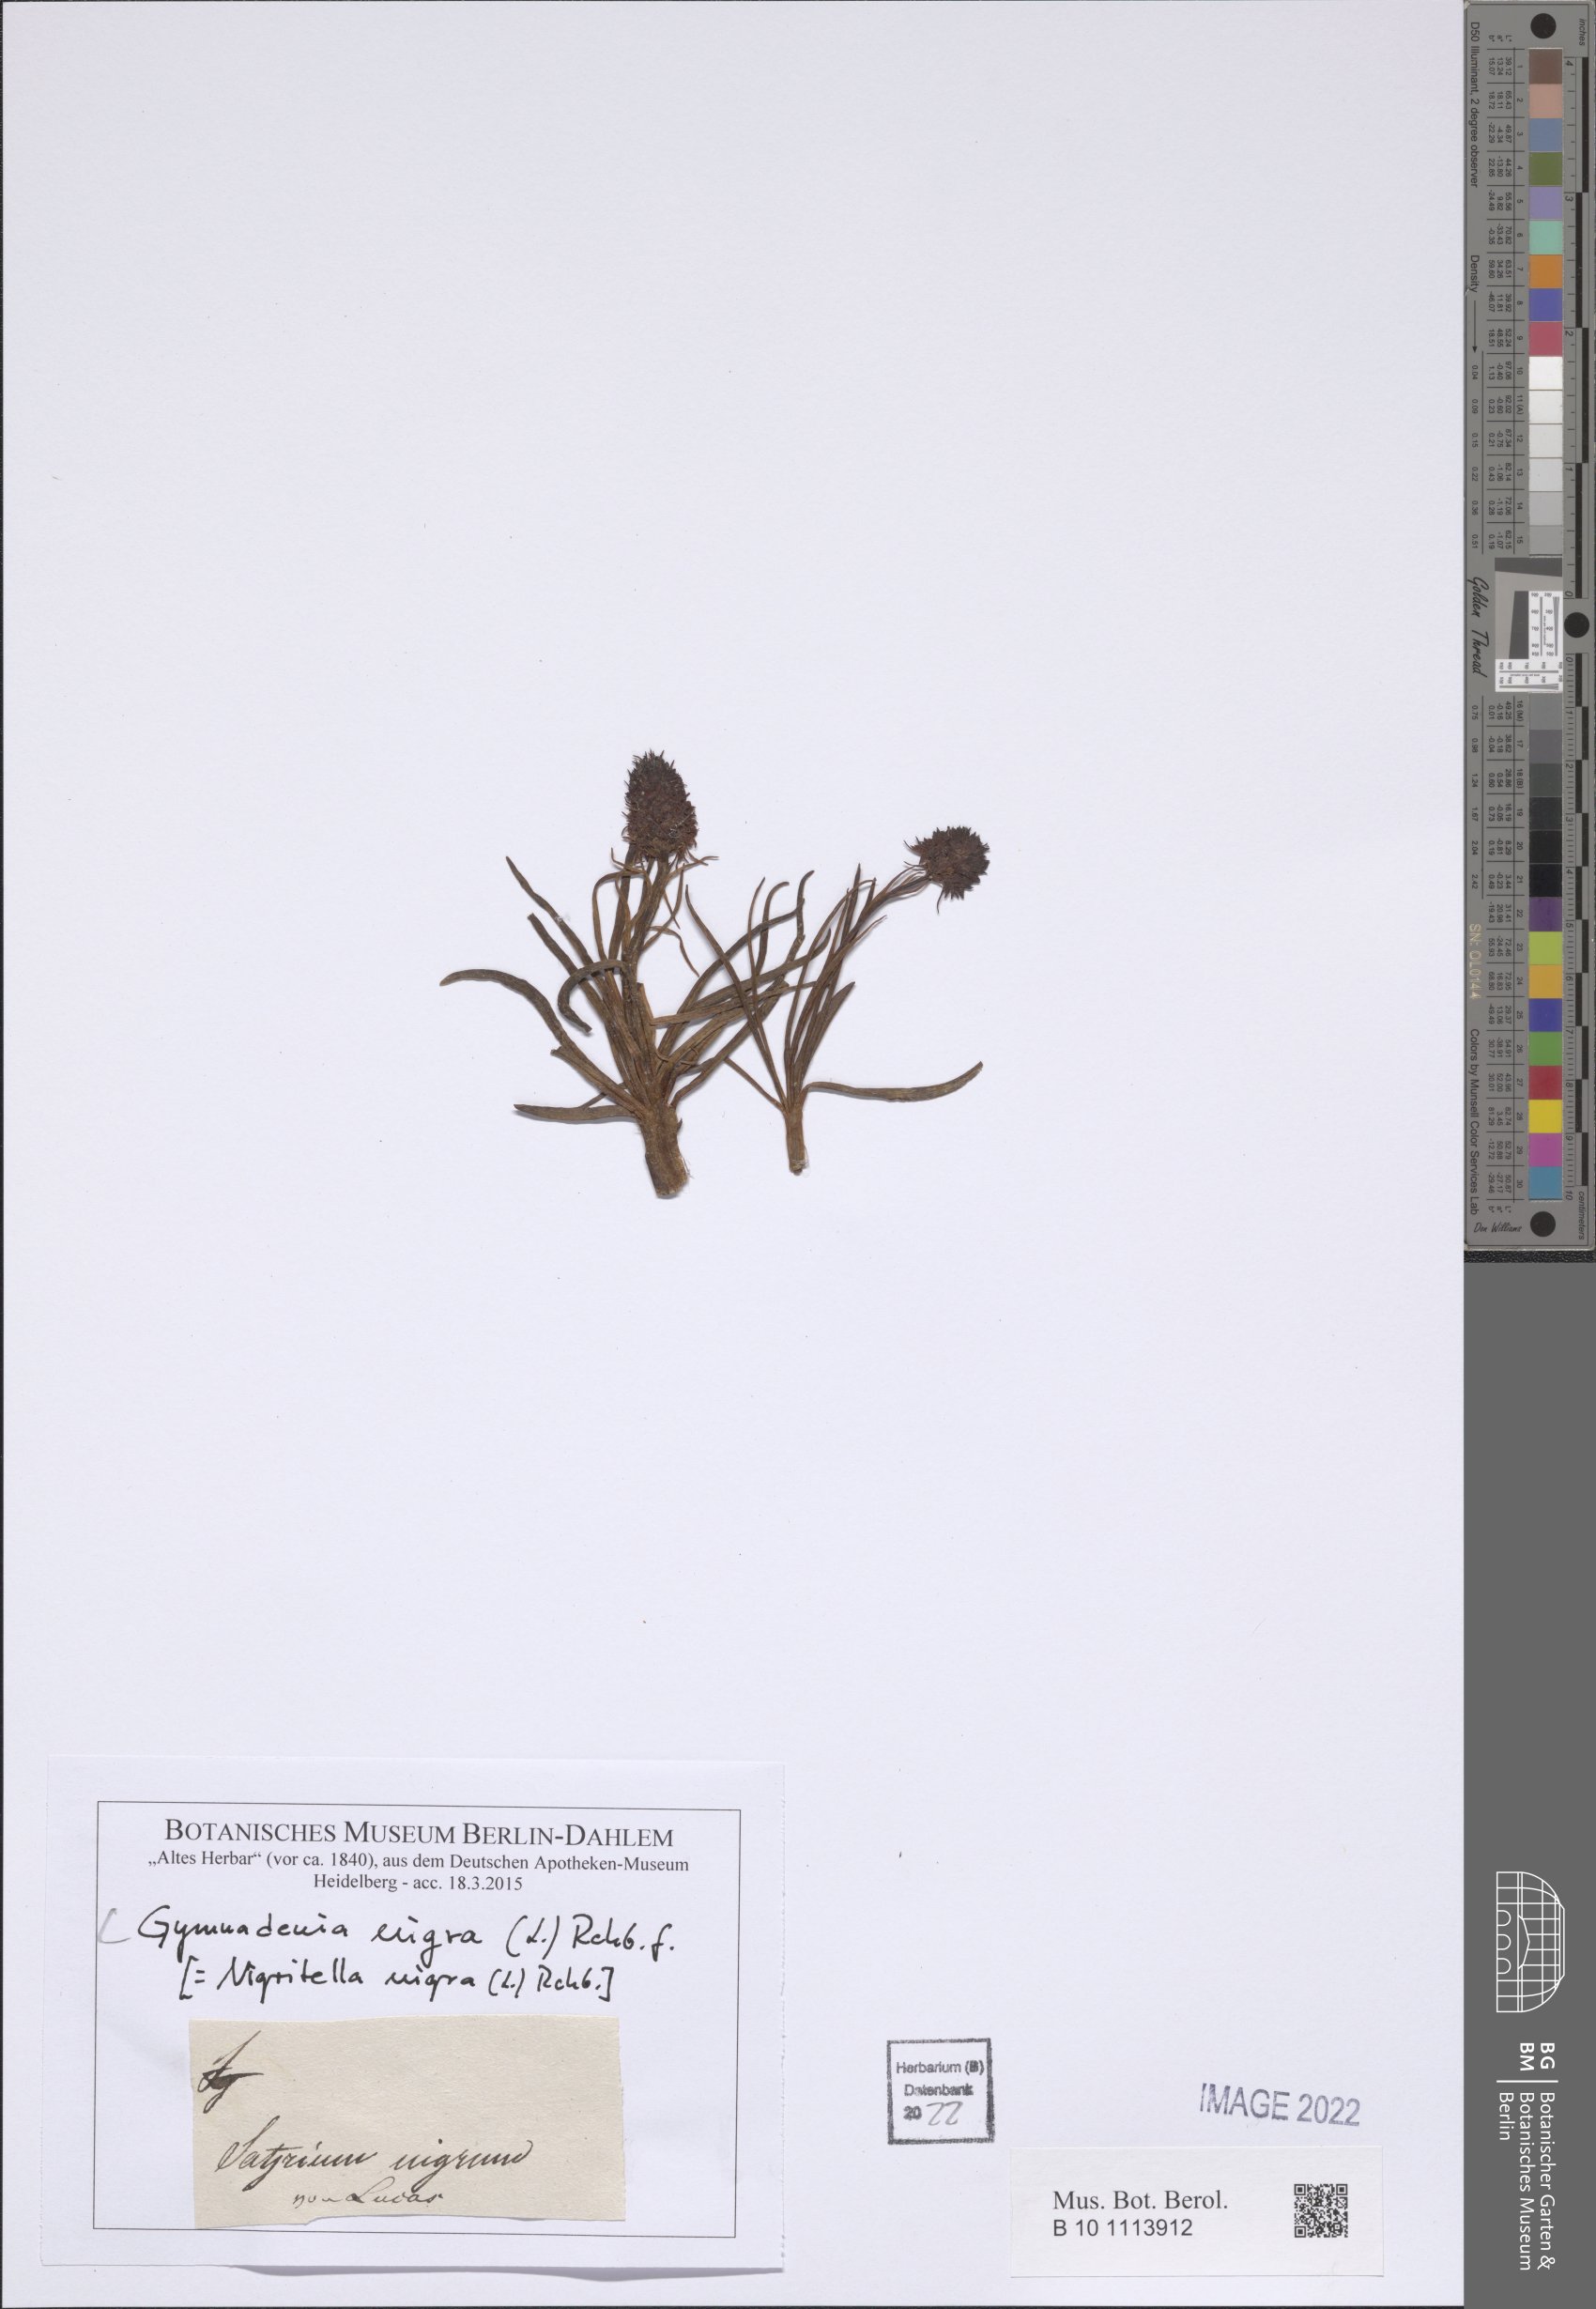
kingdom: Plantae
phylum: Tracheophyta
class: Liliopsida
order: Asparagales
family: Orchidaceae
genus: Gymnadenia
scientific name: Gymnadenia nigra
